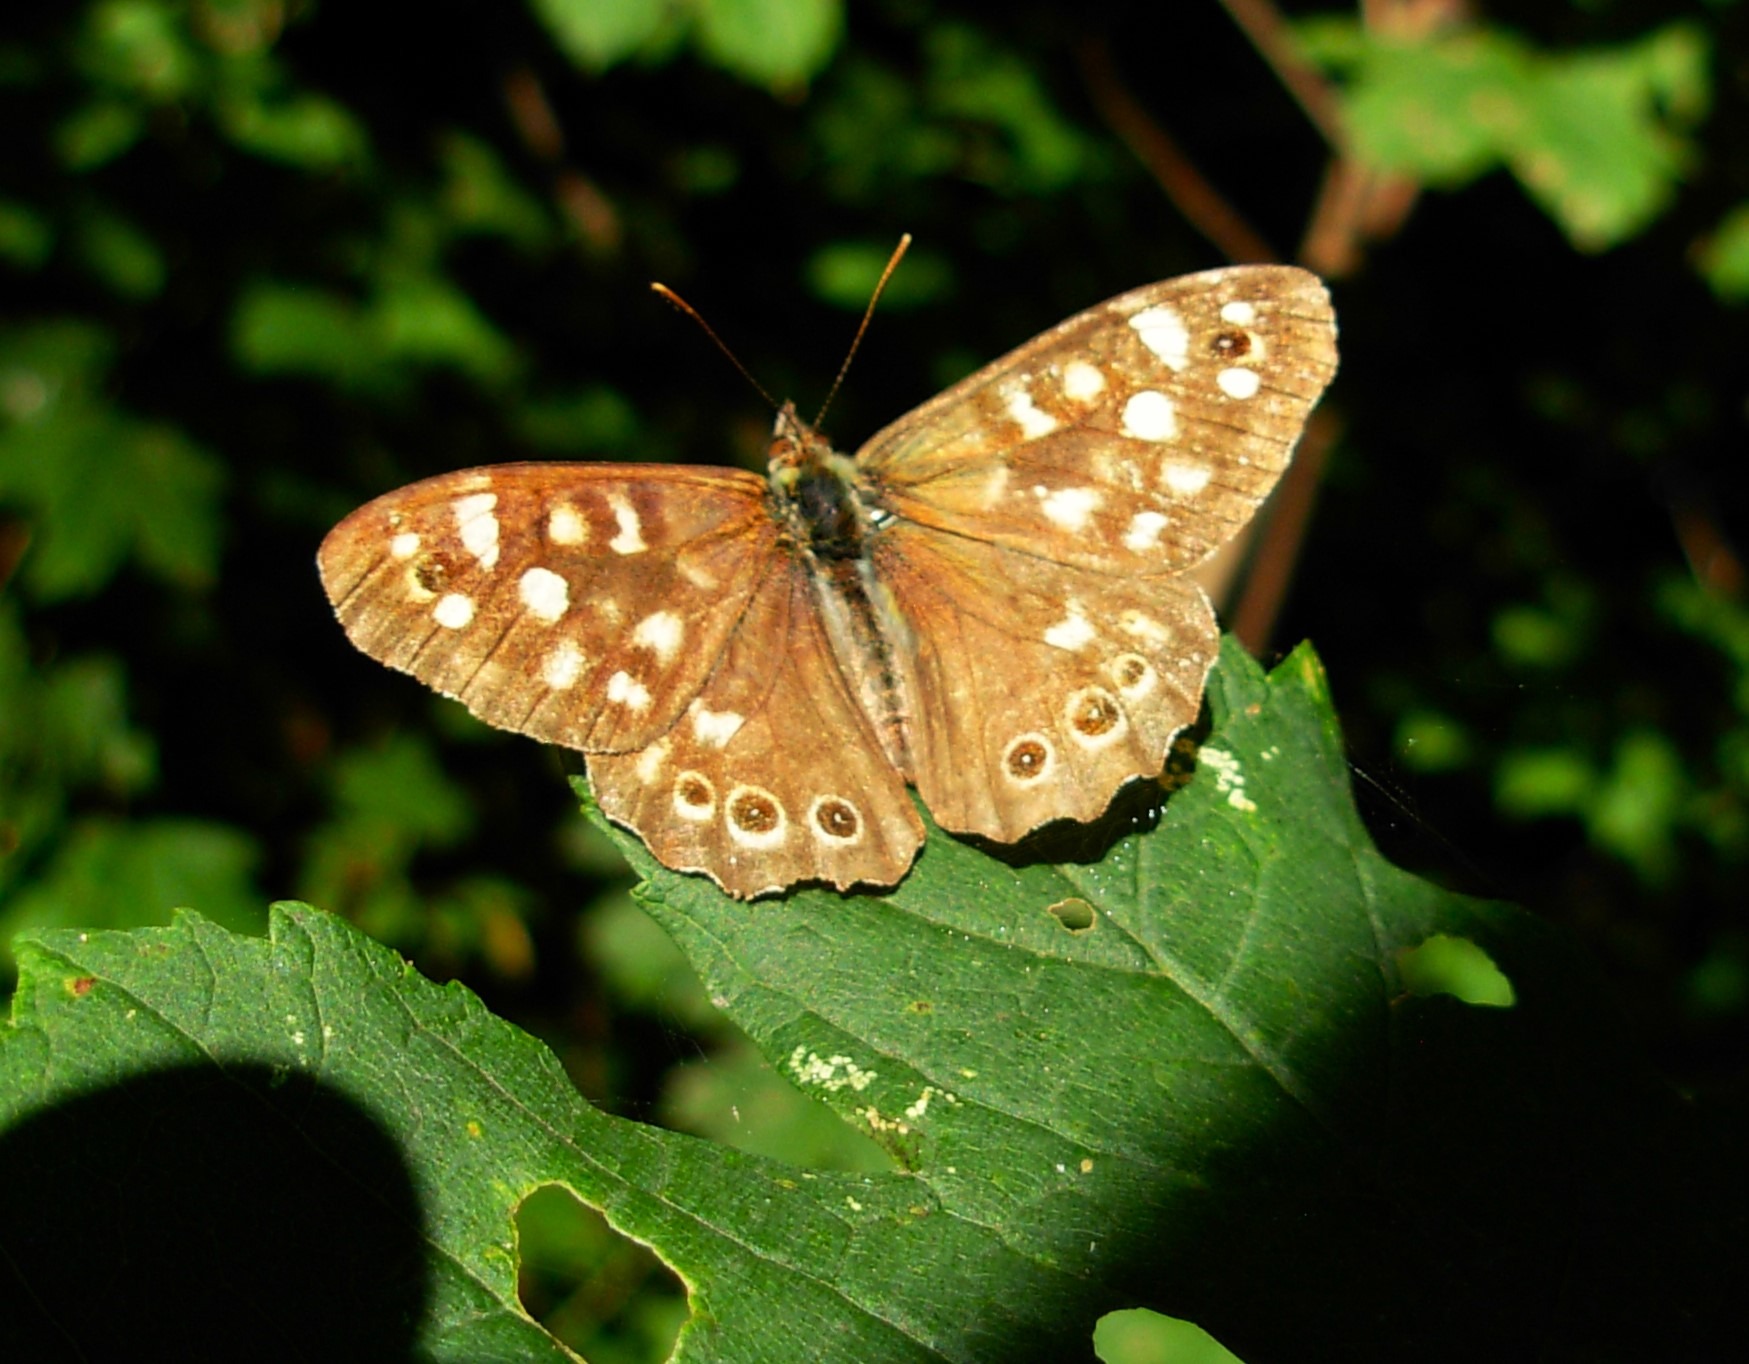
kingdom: Animalia
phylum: Arthropoda
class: Insecta
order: Lepidoptera
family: Nymphalidae
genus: Pararge
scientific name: Pararge aegeria
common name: Skovrandøje
